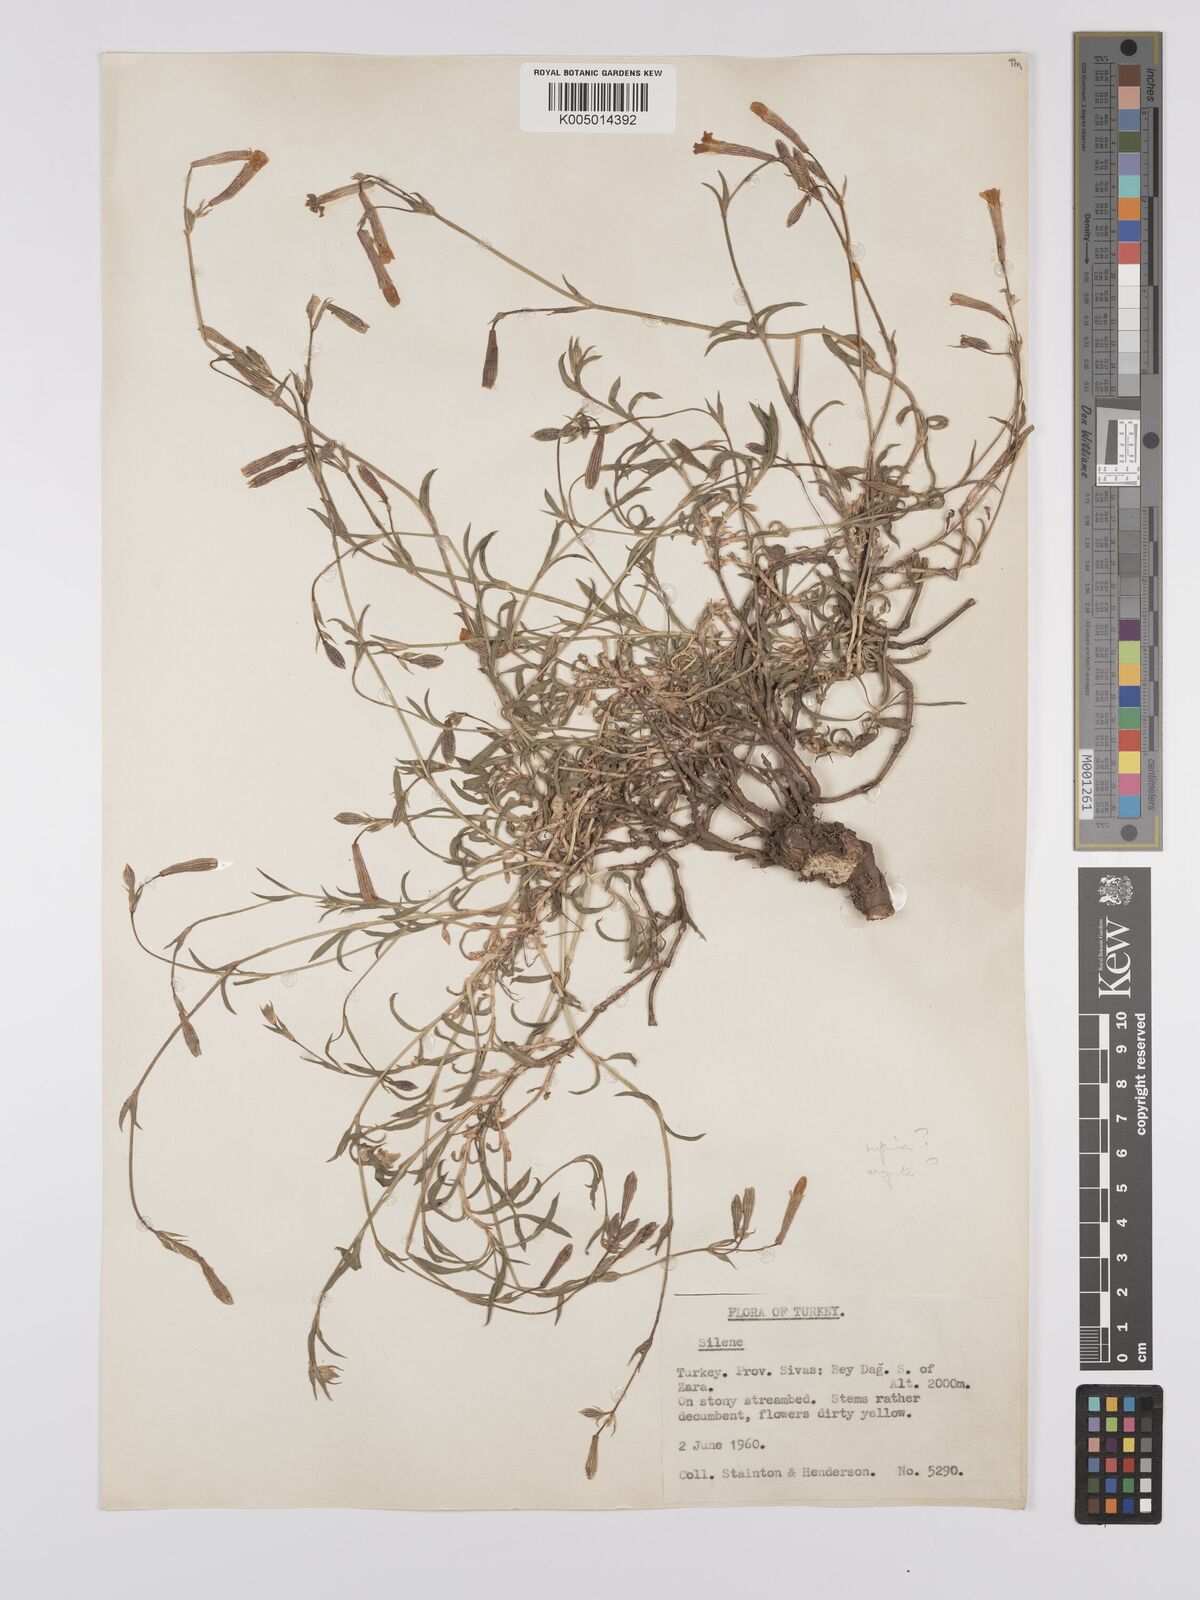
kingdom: Plantae
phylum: Tracheophyta
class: Magnoliopsida
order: Caryophyllales
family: Caryophyllaceae
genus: Silene
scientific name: Silene
